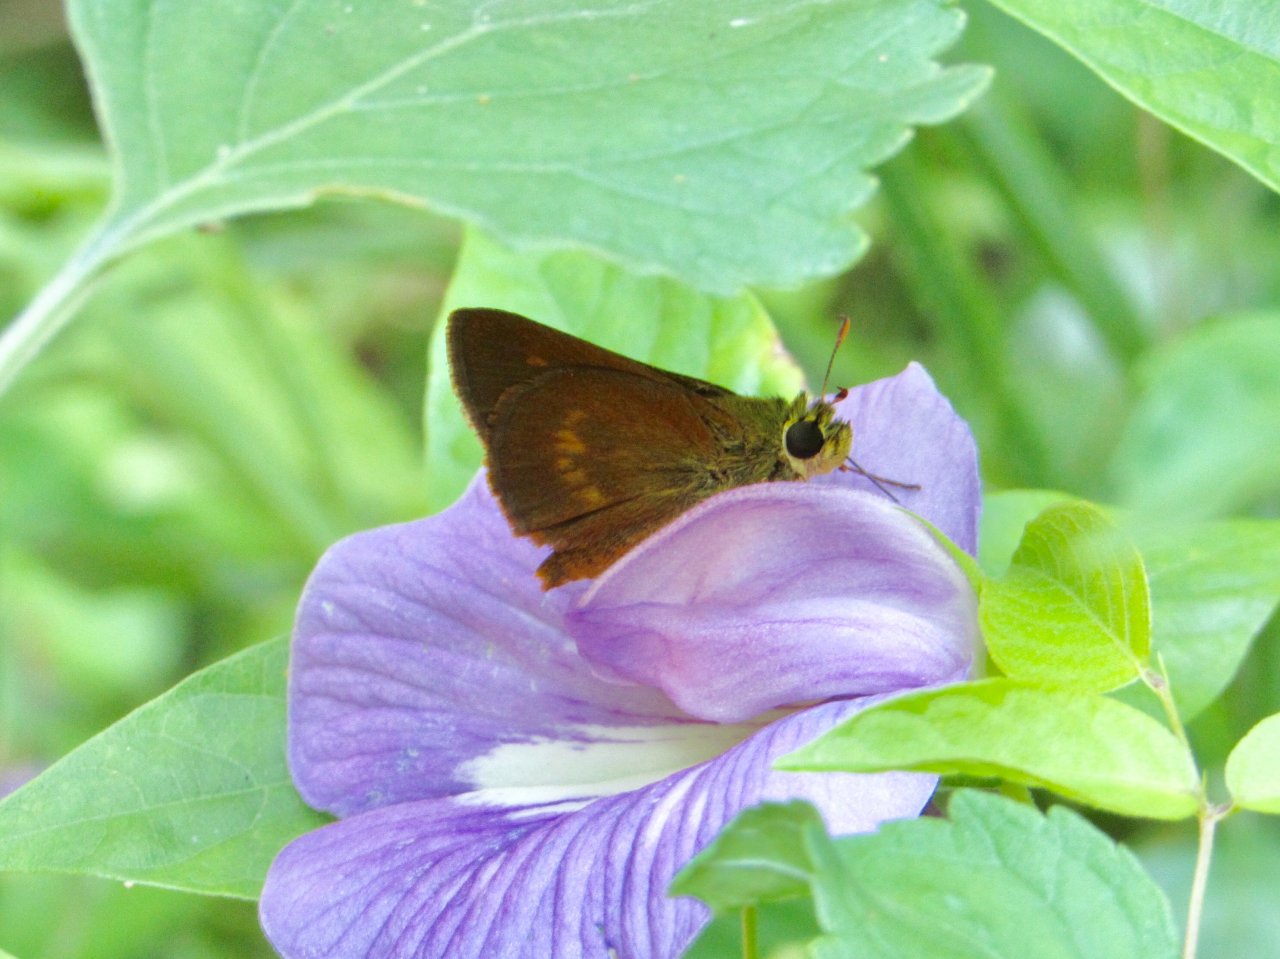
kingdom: Animalia
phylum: Arthropoda
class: Insecta
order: Lepidoptera
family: Hesperiidae
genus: Wallengrenia
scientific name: Wallengrenia otho
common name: Southern Broken-Dash
